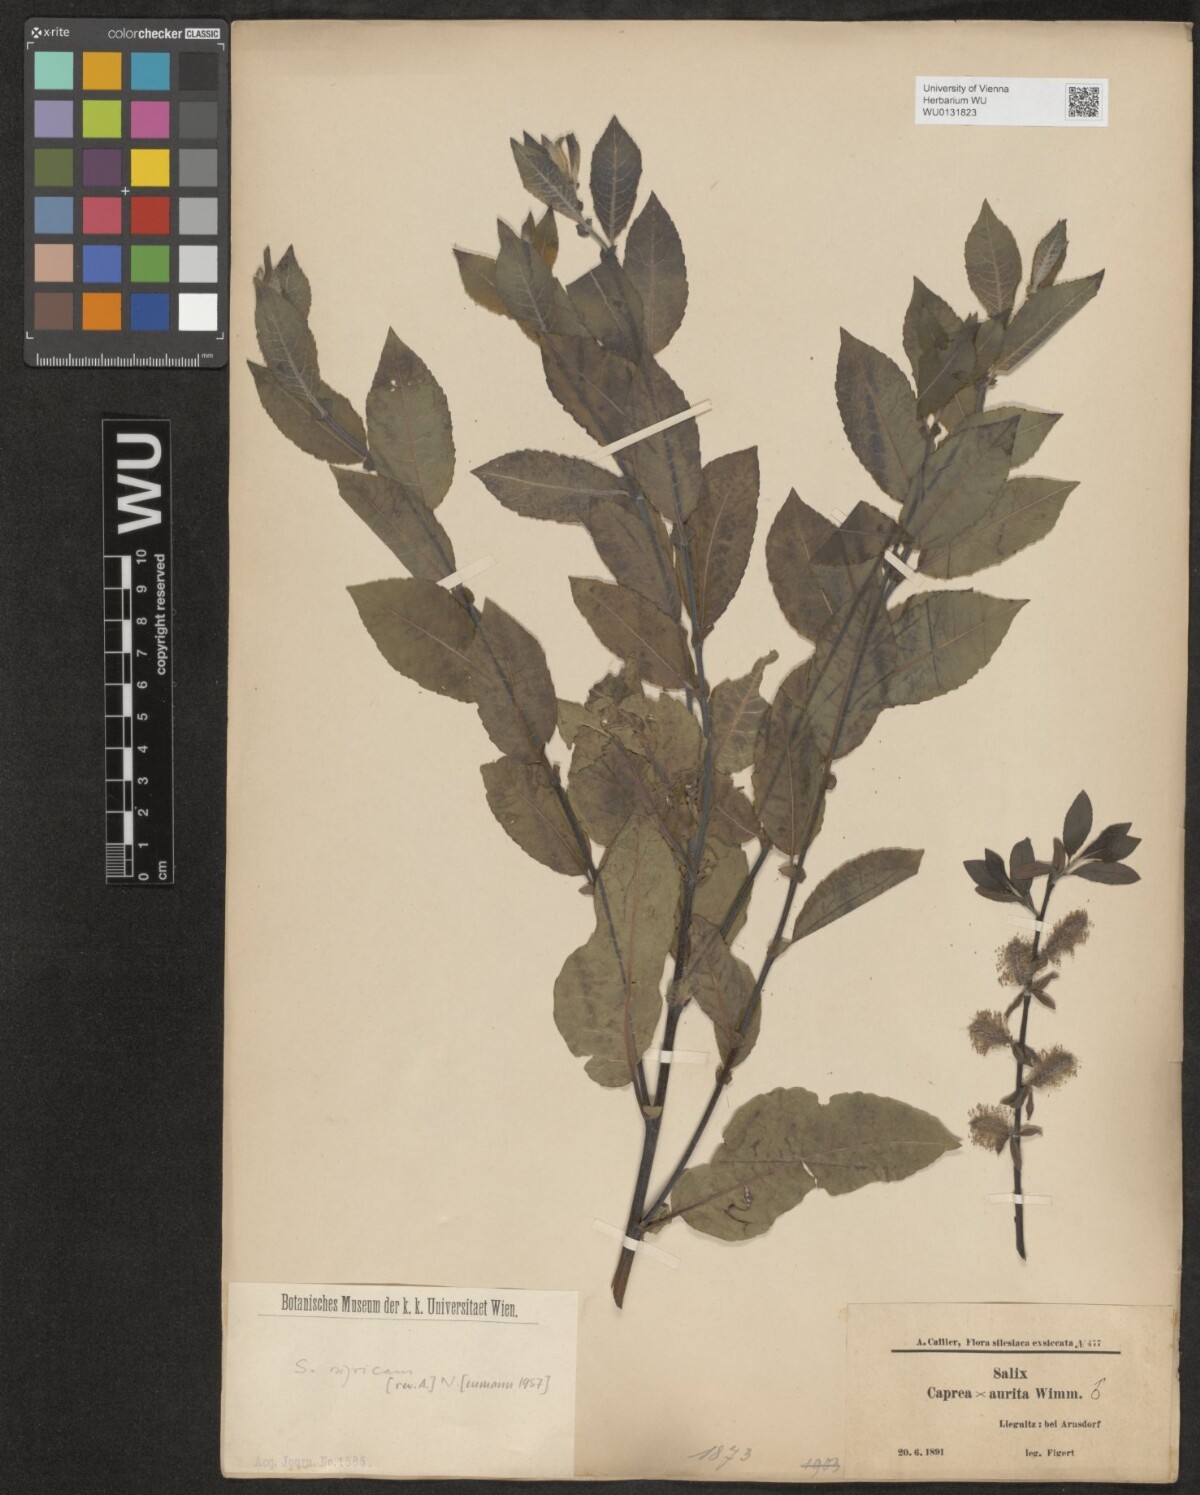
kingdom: Plantae
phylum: Tracheophyta
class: Magnoliopsida
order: Malpighiales
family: Salicaceae
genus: Salix
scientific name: Salix myrsinifolia
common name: Dark-leaved willow
